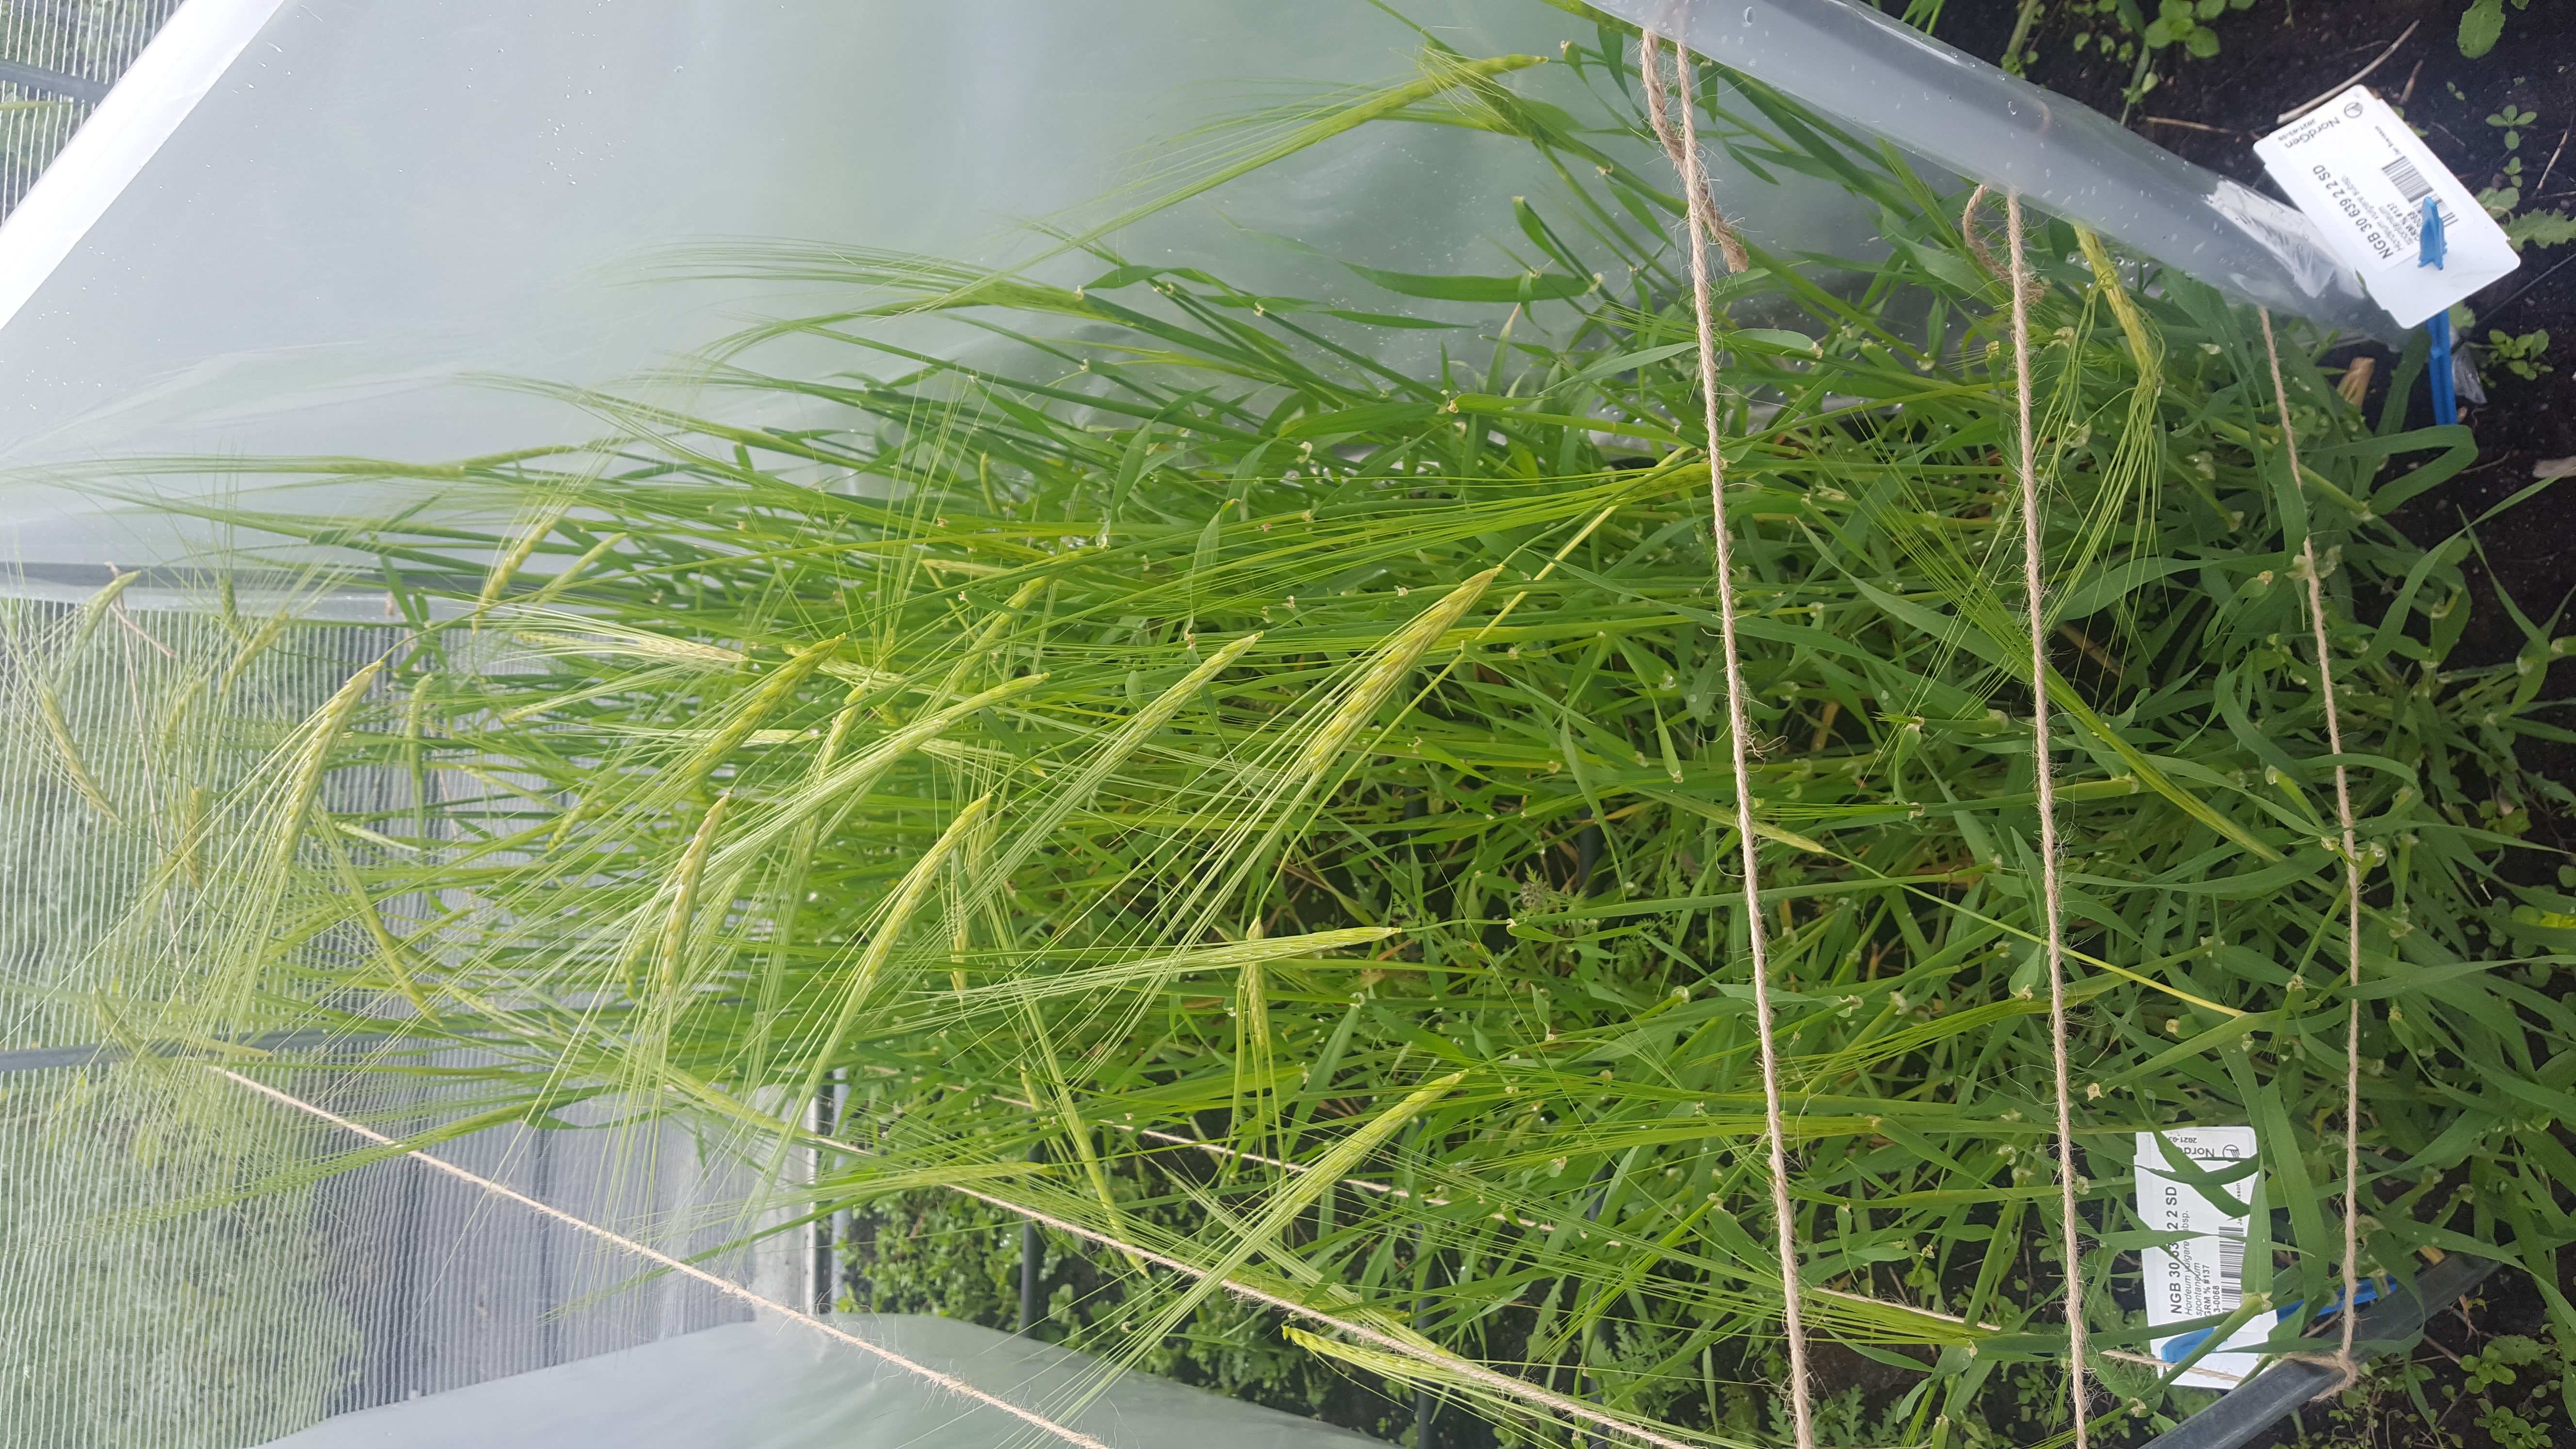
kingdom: Plantae
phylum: Tracheophyta
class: Liliopsida
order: Poales
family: Poaceae
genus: Hordeum
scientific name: Hordeum spontaneum
